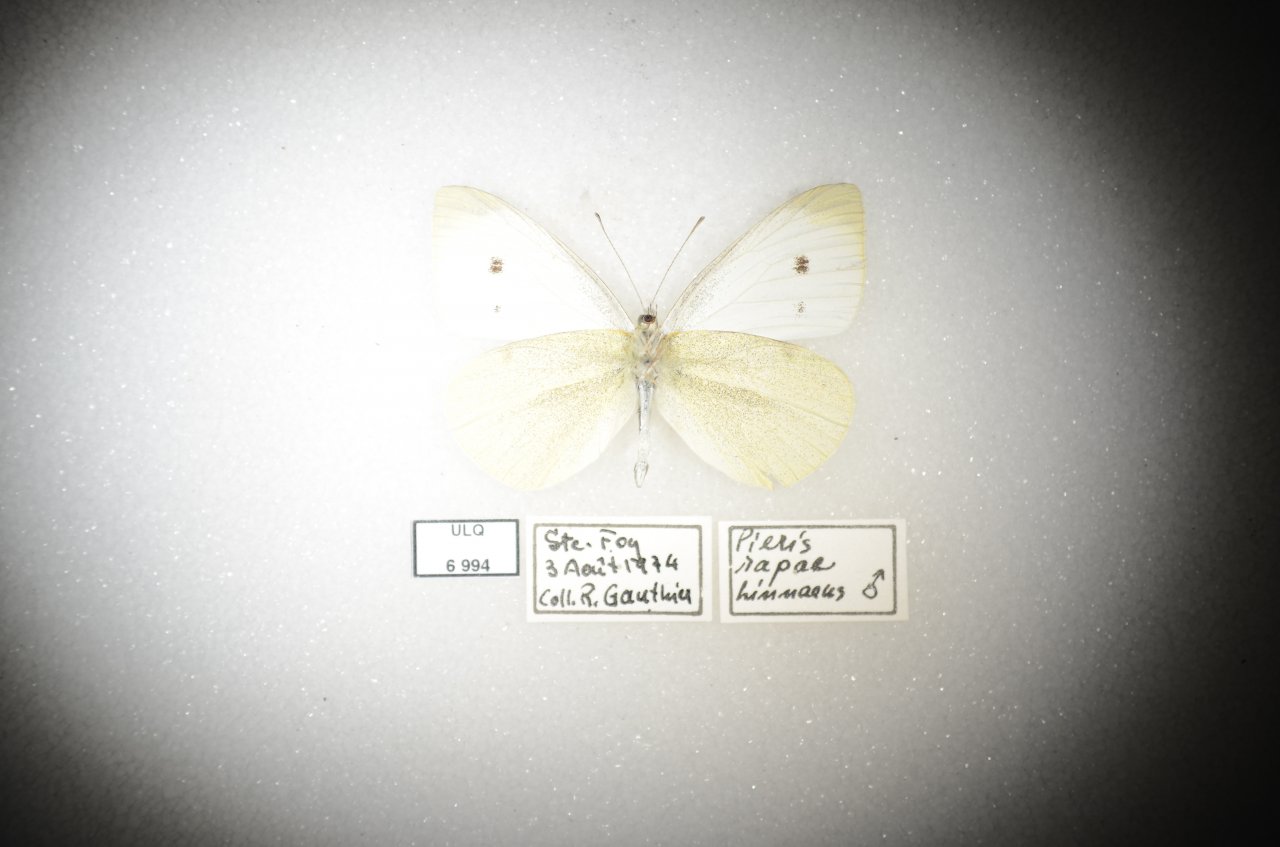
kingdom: Animalia
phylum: Arthropoda
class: Insecta
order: Lepidoptera
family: Pieridae
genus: Pieris
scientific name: Pieris rapae
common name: Cabbage White
